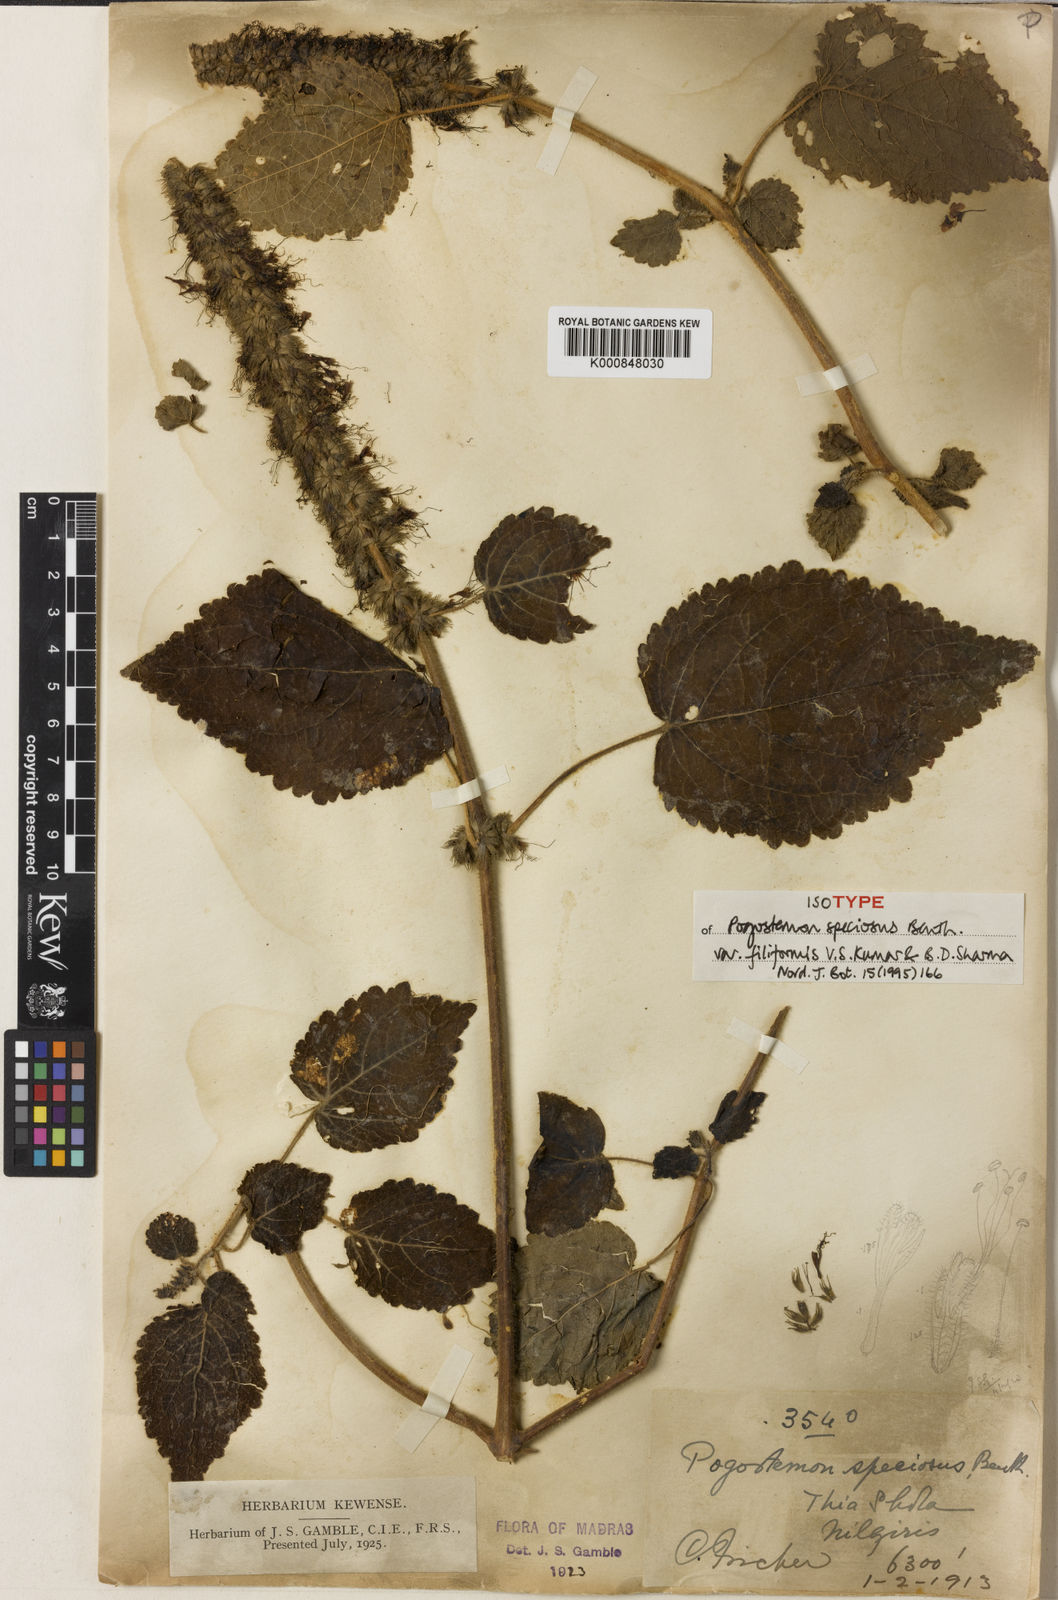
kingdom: Plantae
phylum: Tracheophyta
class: Magnoliopsida
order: Lamiales
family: Lamiaceae
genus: Pogostemon
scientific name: Pogostemon speciosus
